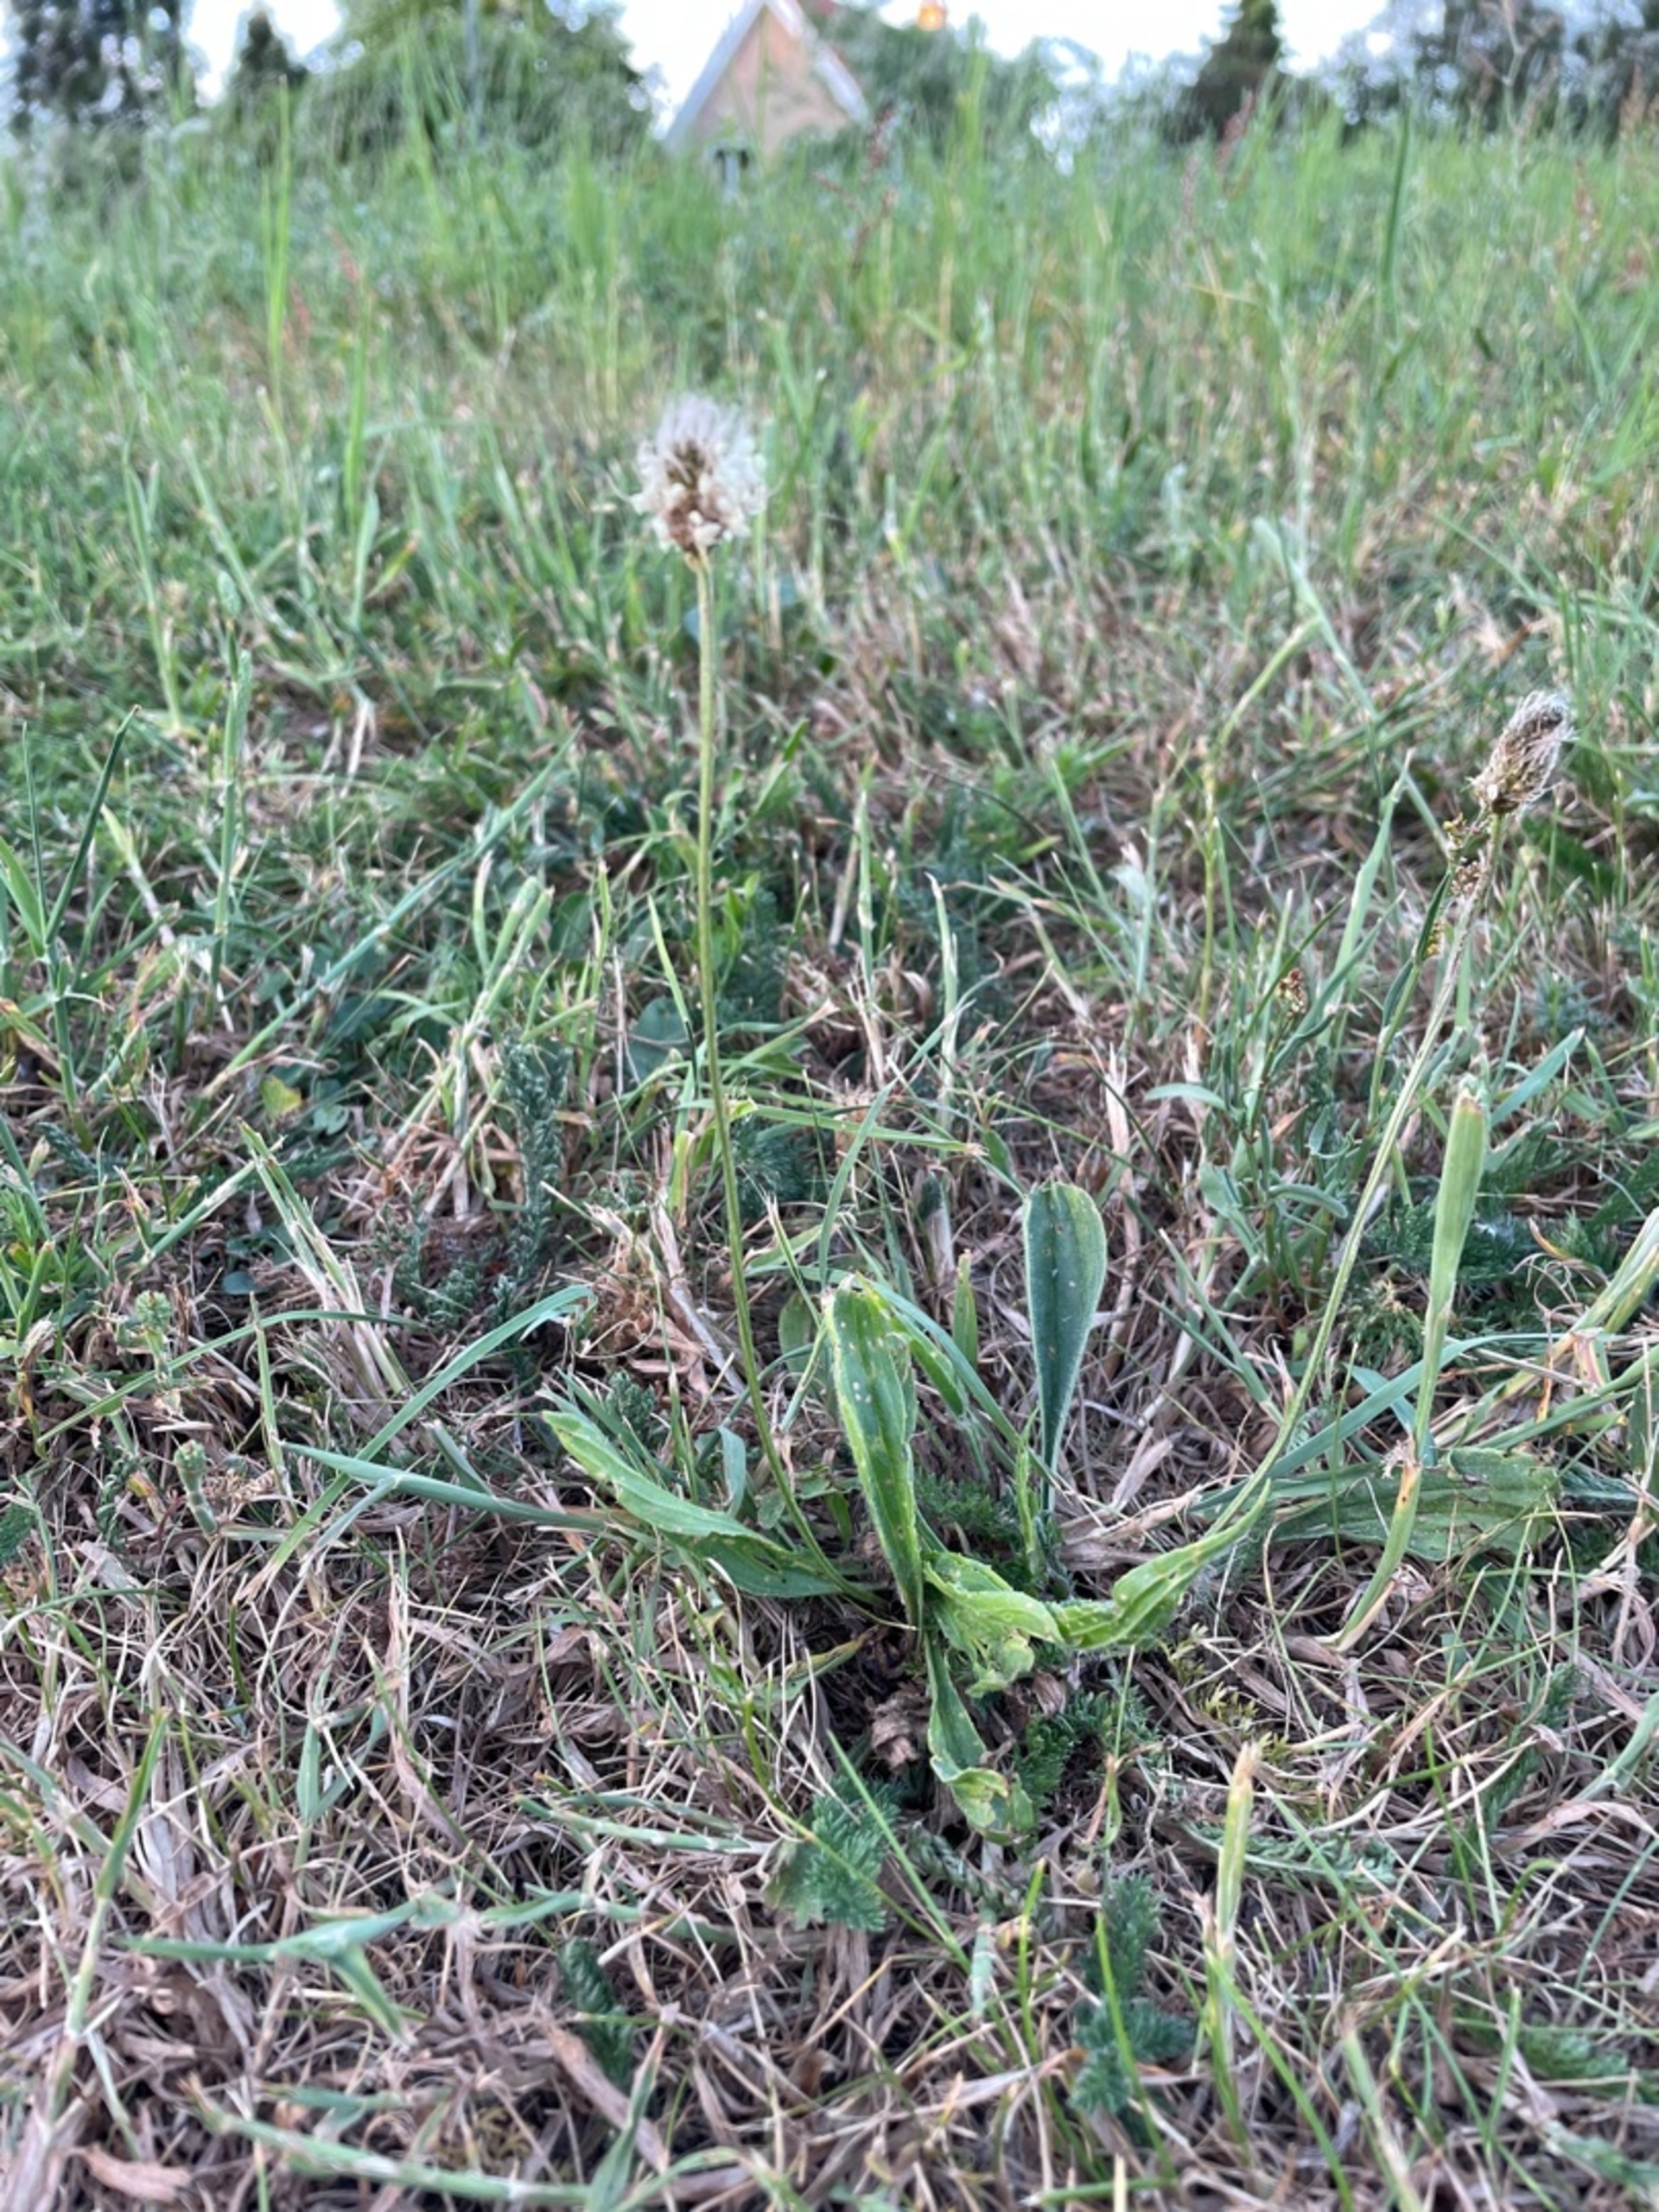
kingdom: Plantae
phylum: Tracheophyta
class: Magnoliopsida
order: Lamiales
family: Plantaginaceae
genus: Plantago
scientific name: Plantago lanceolata
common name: Lancet-vejbred
